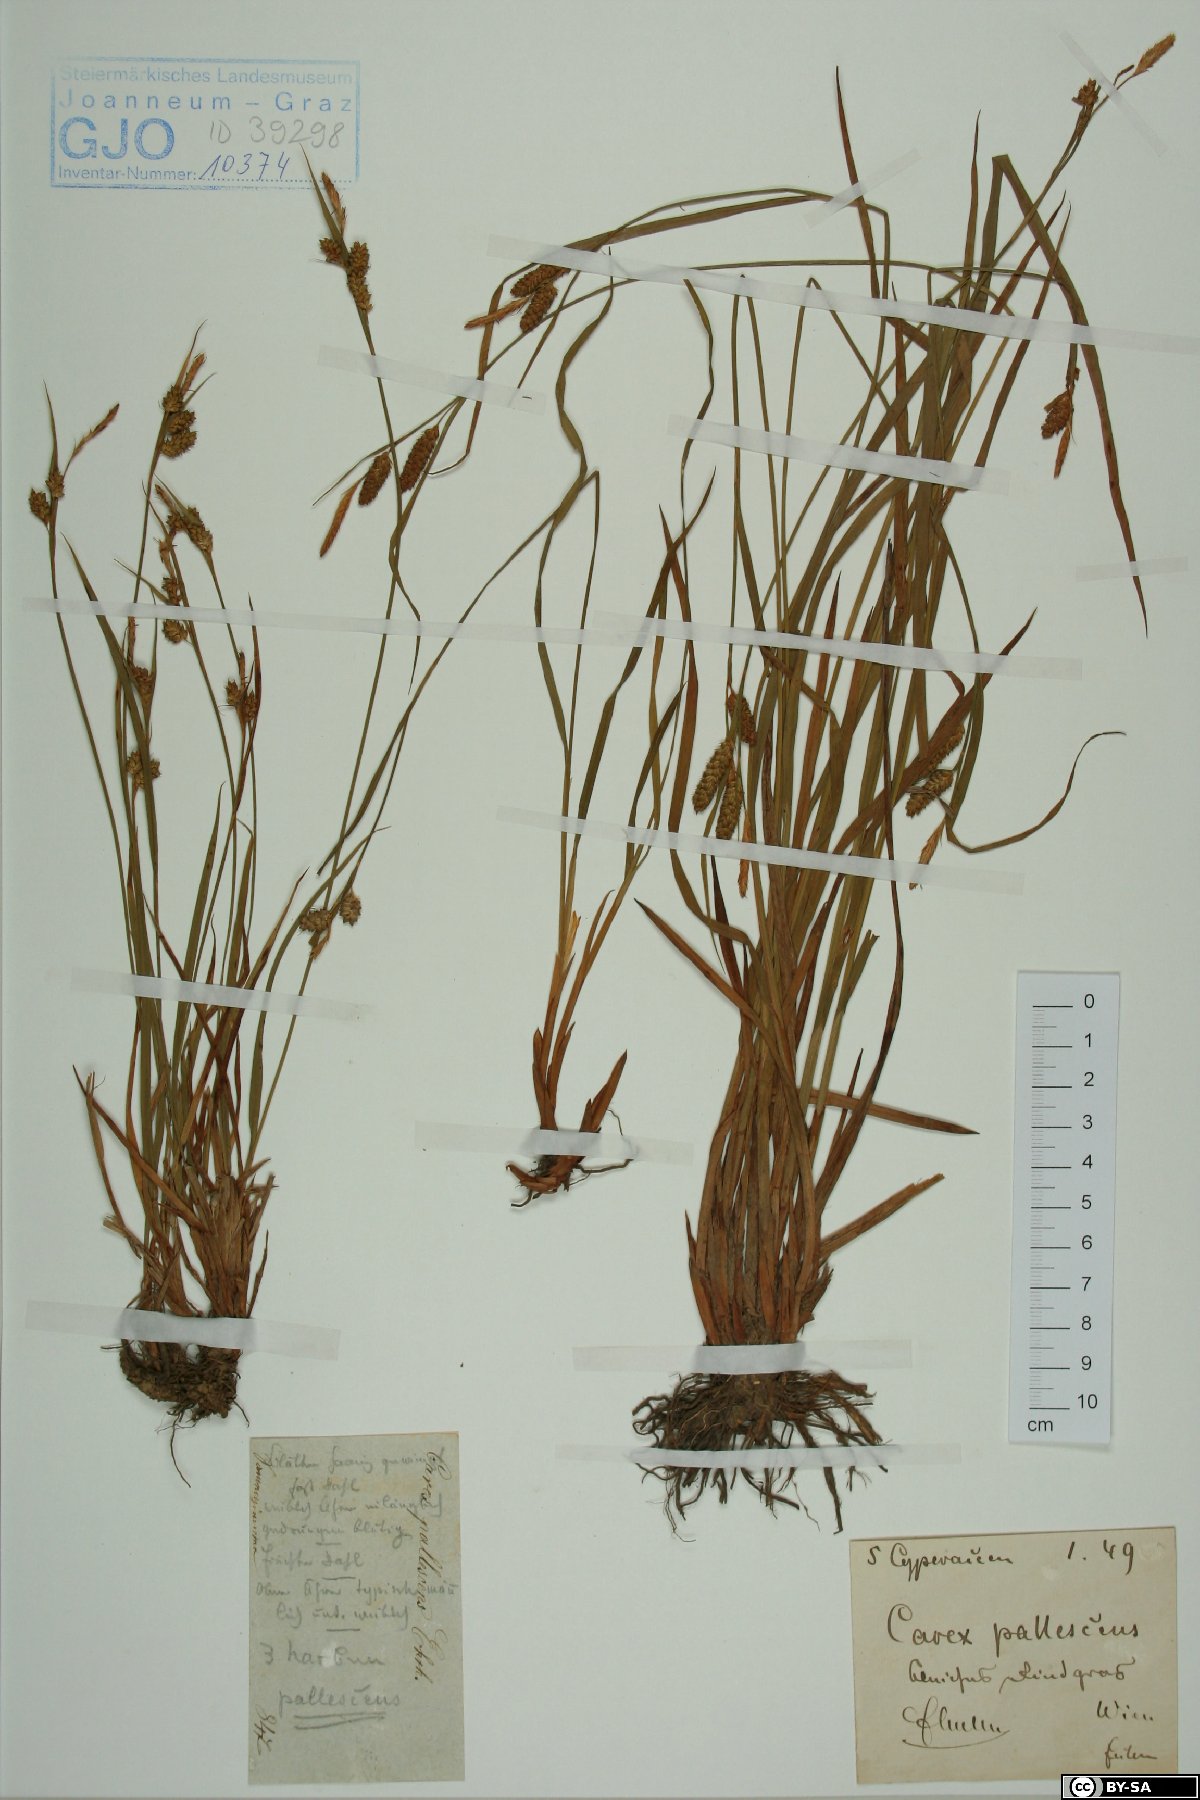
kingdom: Plantae
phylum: Tracheophyta
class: Liliopsida
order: Poales
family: Cyperaceae
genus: Carex
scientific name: Carex pallescens
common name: Pale sedge
